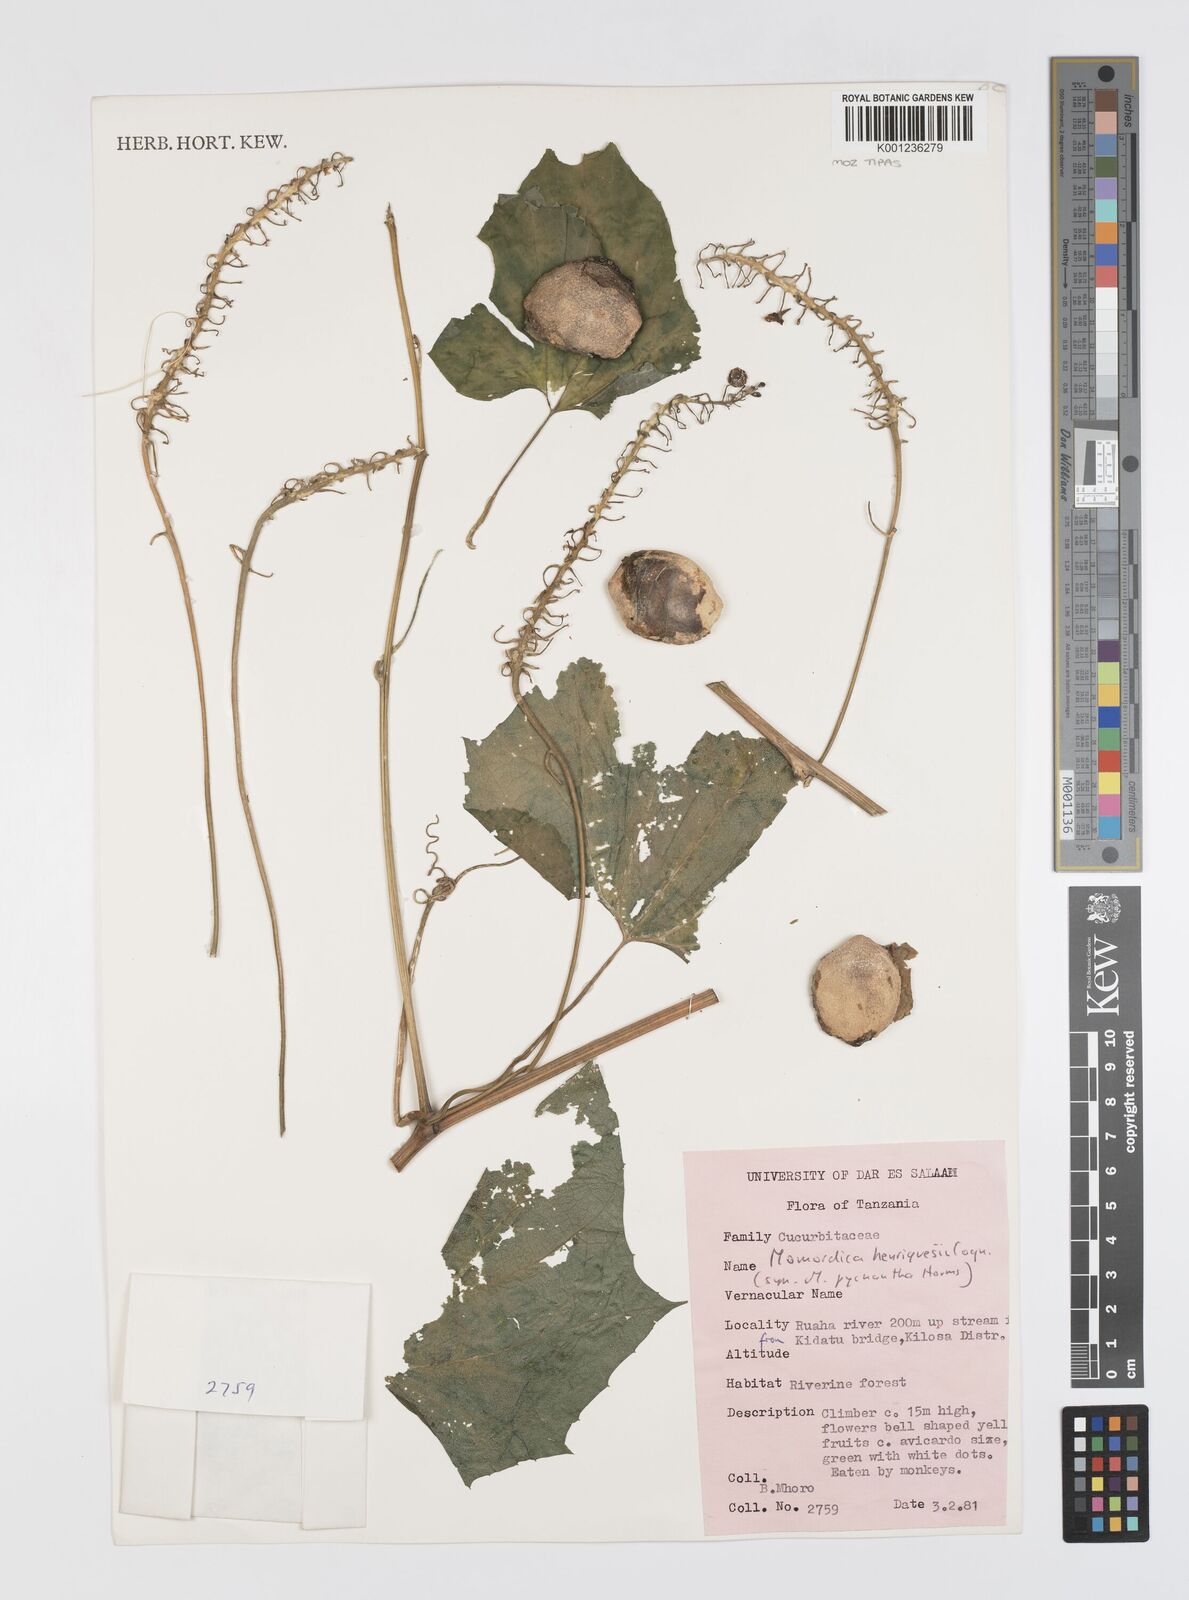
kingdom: Plantae
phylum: Tracheophyta
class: Magnoliopsida
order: Cucurbitales
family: Cucurbitaceae
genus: Momordica
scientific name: Momordica henriquesii
